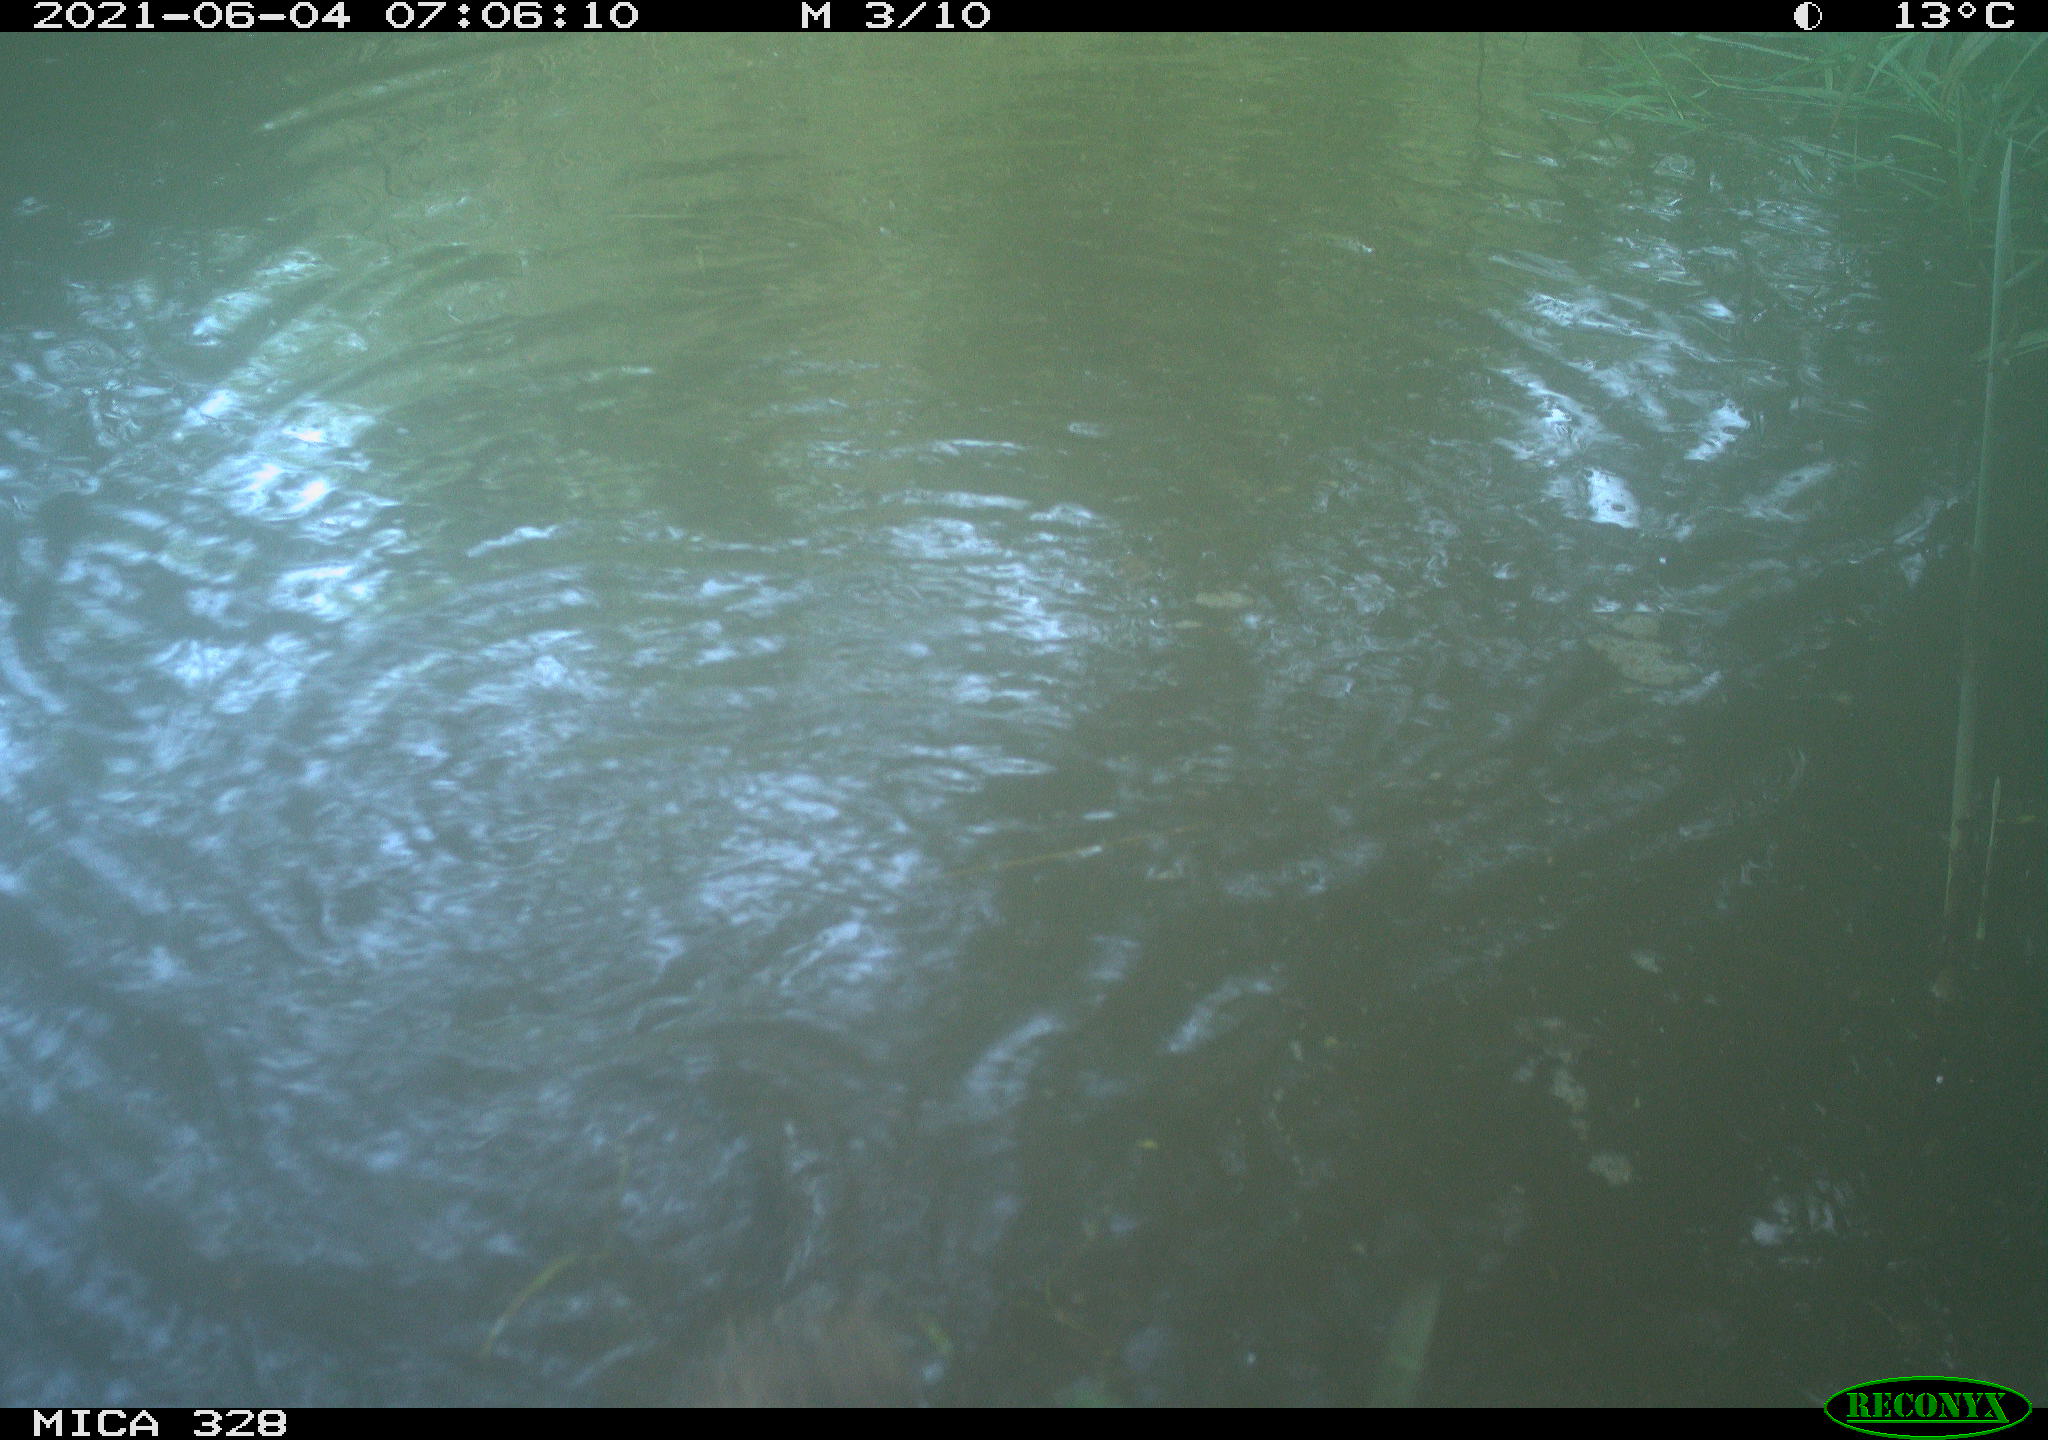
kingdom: Animalia
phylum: Chordata
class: Mammalia
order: Rodentia
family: Cricetidae
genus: Ondatra
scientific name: Ondatra zibethicus
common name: Muskrat
